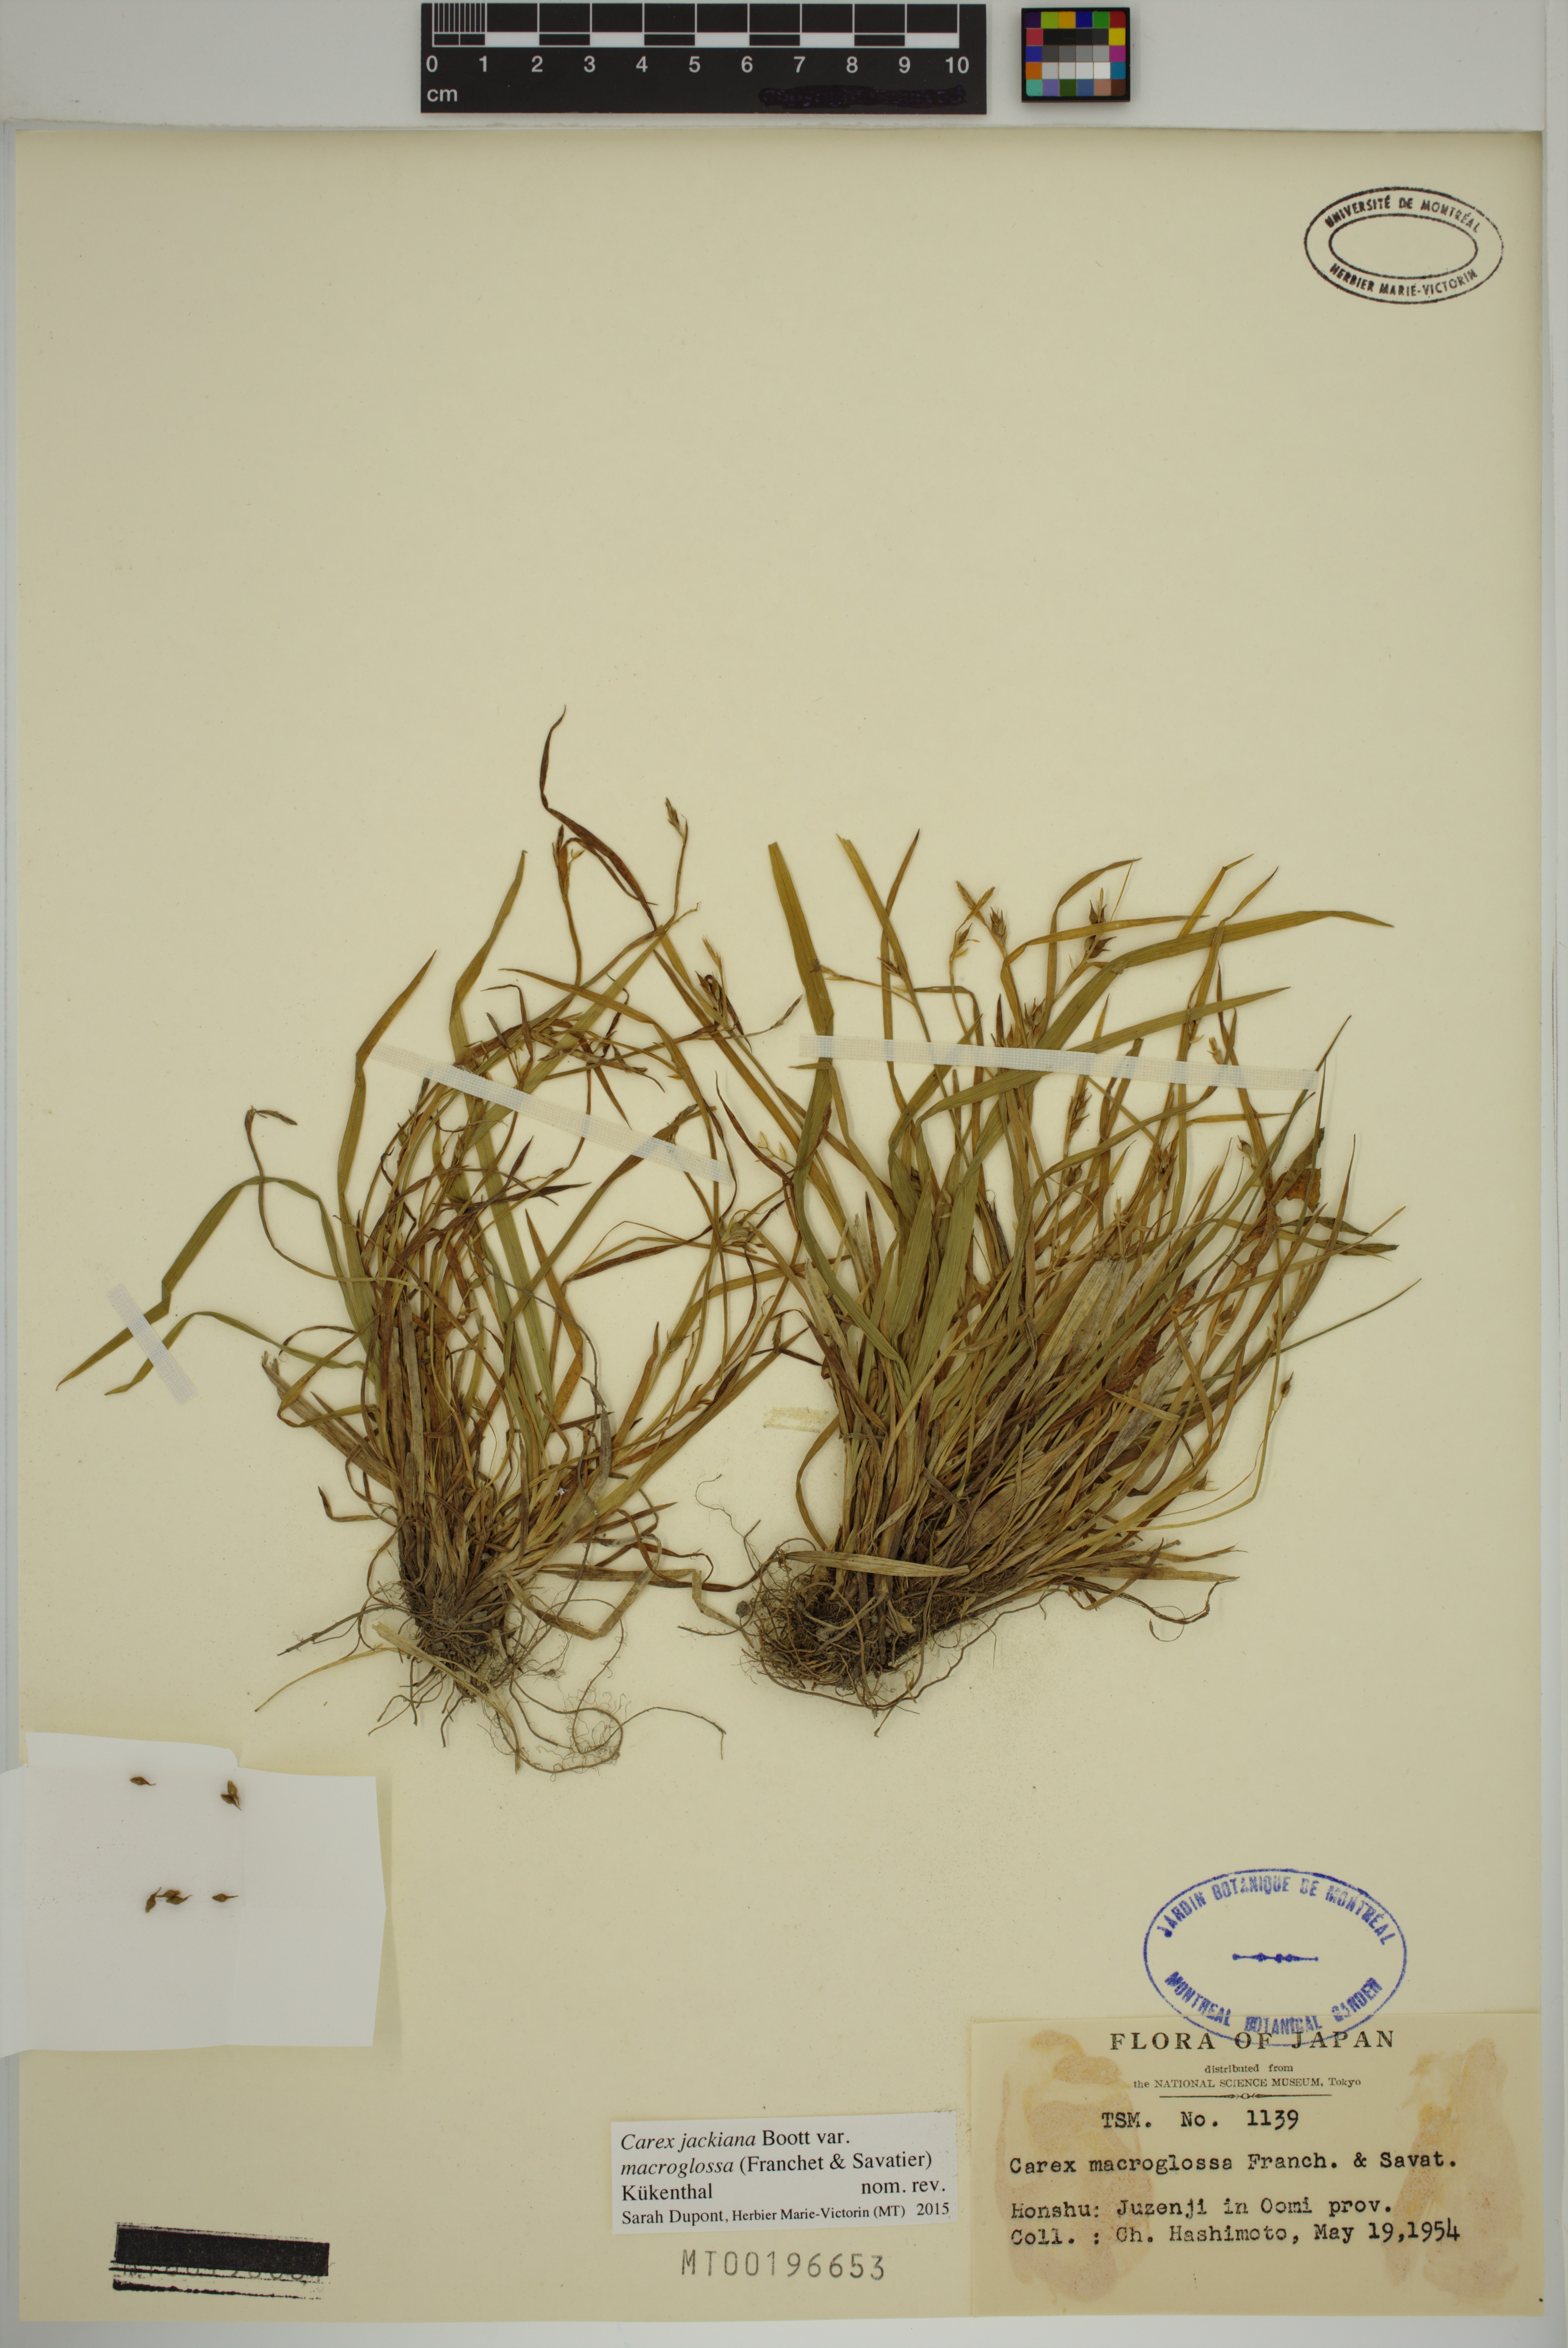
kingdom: Plantae
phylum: Tracheophyta
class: Liliopsida
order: Poales
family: Cyperaceae
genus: Carex
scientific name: Carex macroglossa
